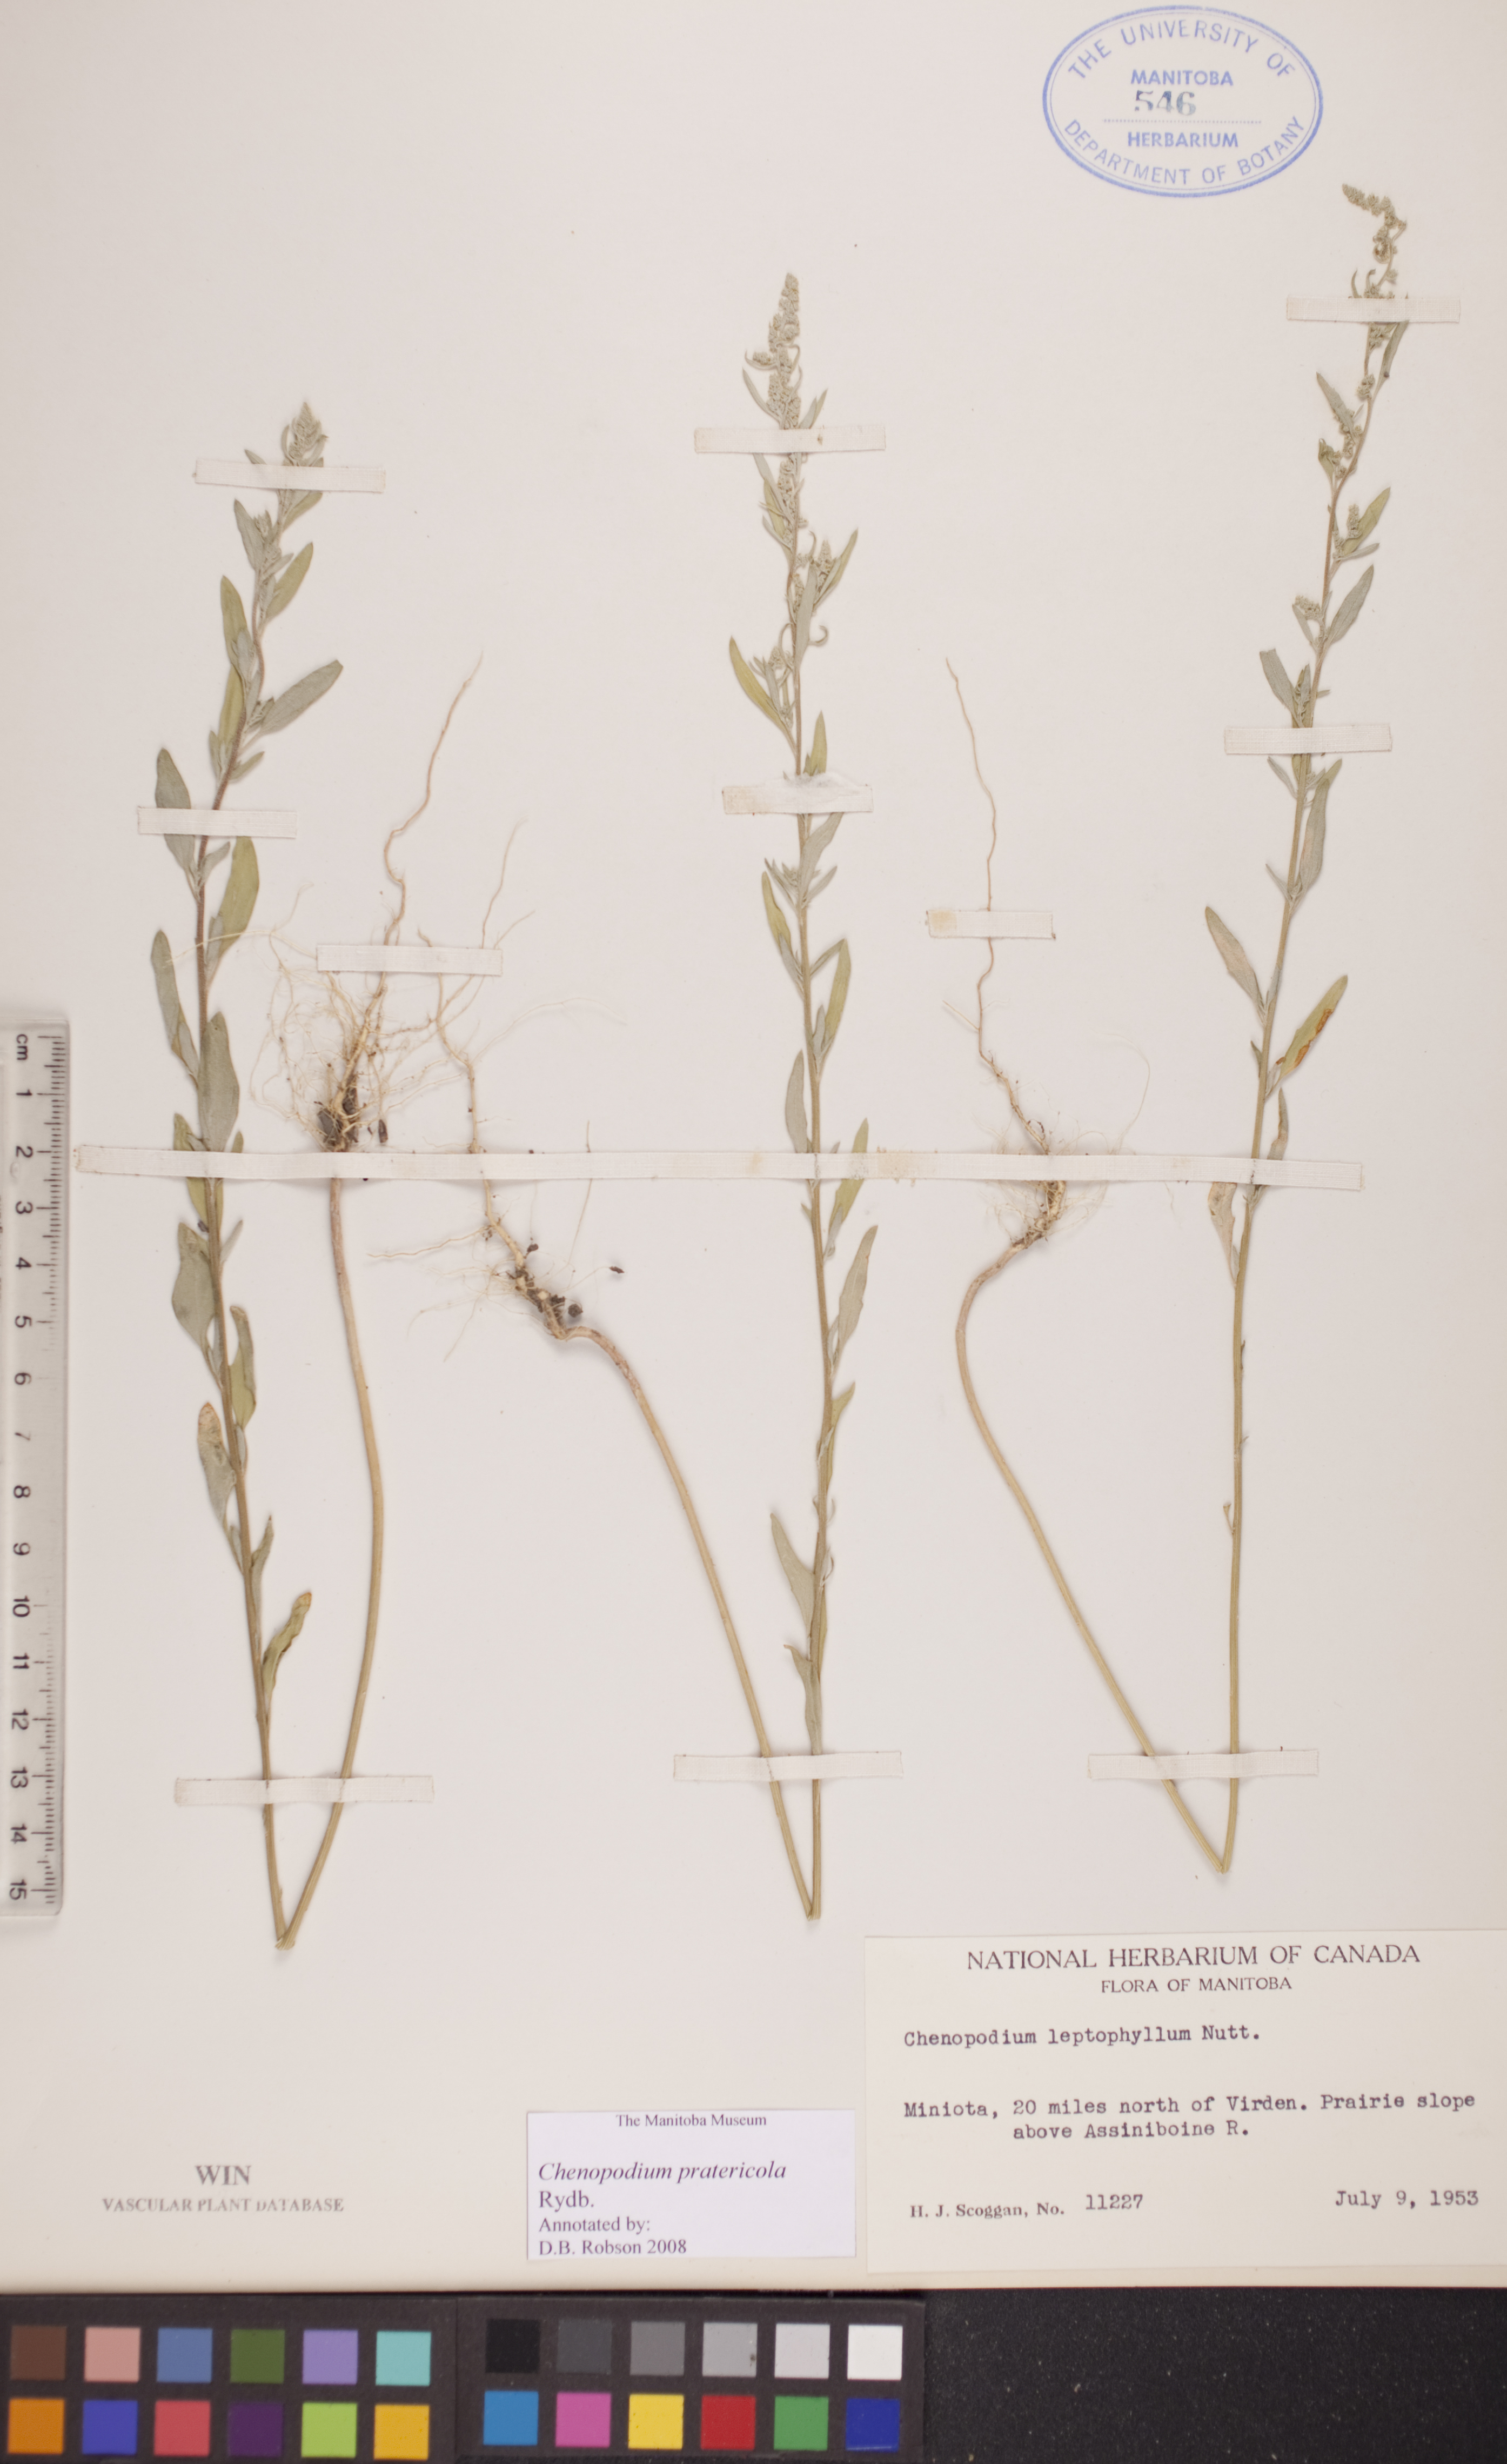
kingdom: Plantae
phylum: Tracheophyta
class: Magnoliopsida
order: Caryophyllales
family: Amaranthaceae
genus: Chenopodium
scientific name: Chenopodium pratericola
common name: Desert goosefoot
